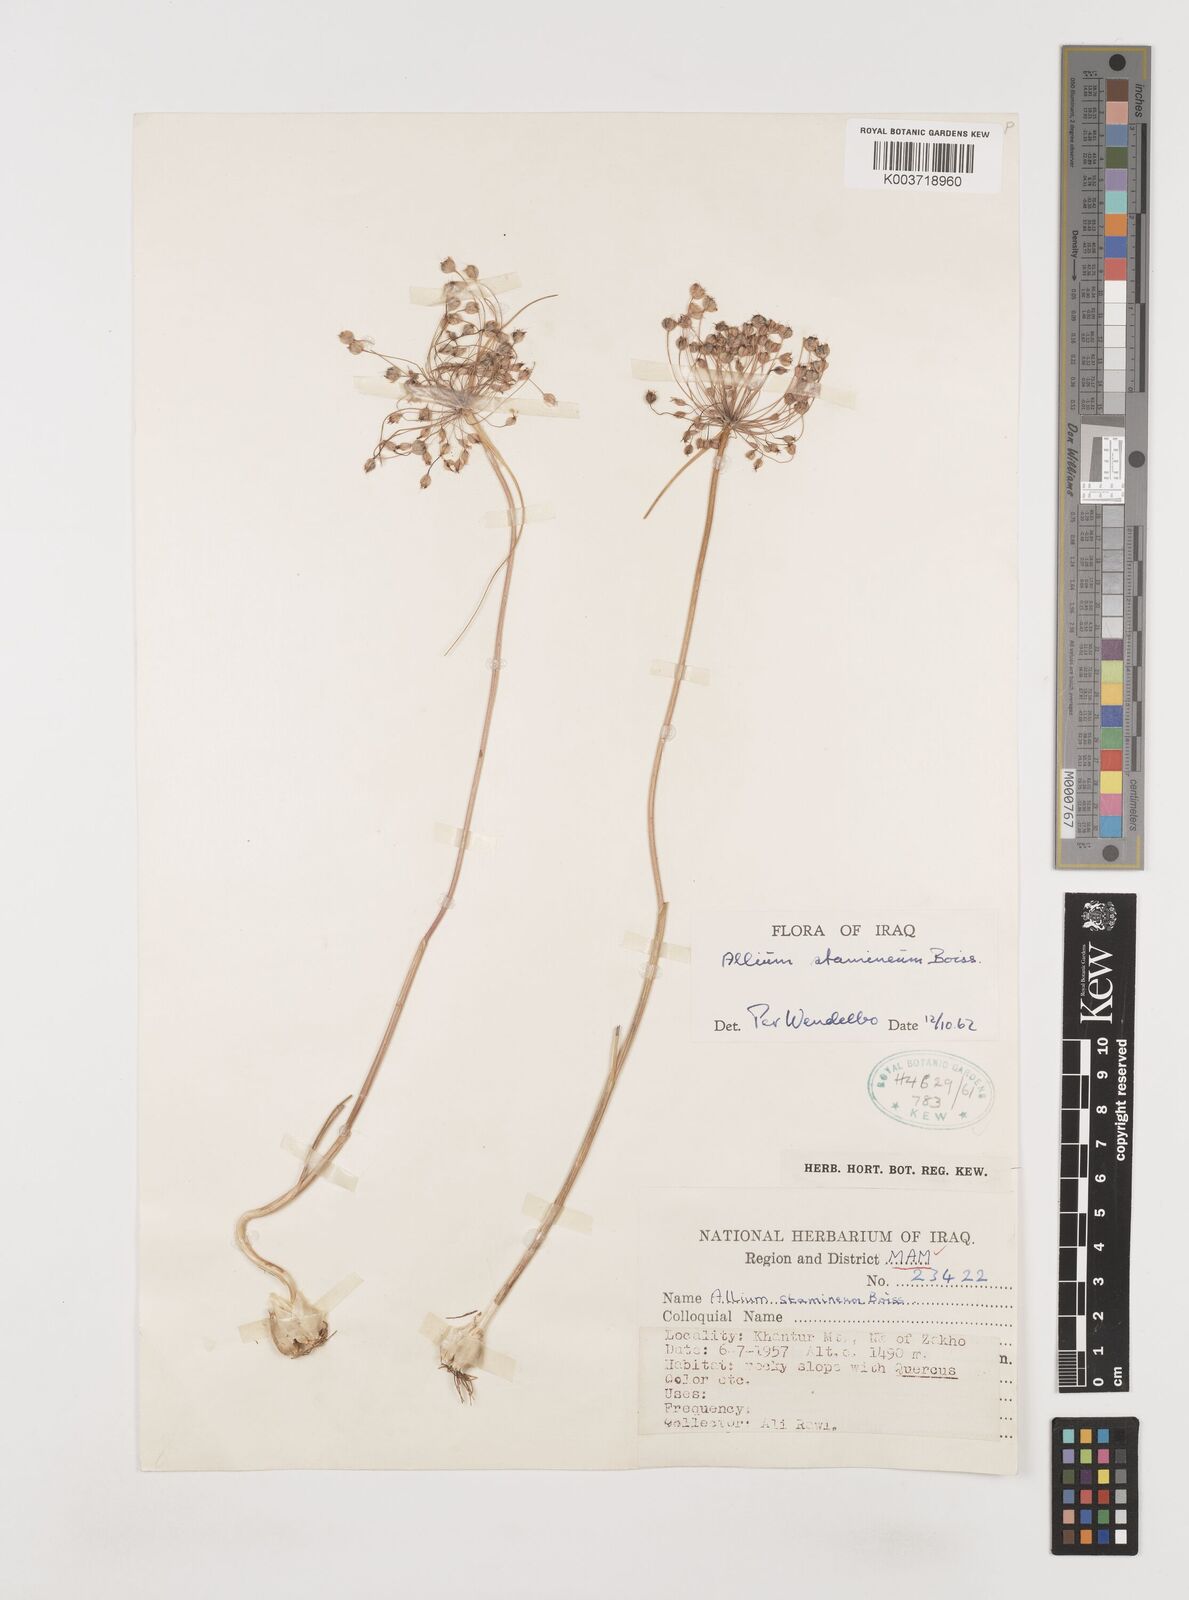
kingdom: Plantae
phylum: Tracheophyta
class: Liliopsida
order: Asparagales
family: Amaryllidaceae
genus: Allium
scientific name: Allium stamineum
